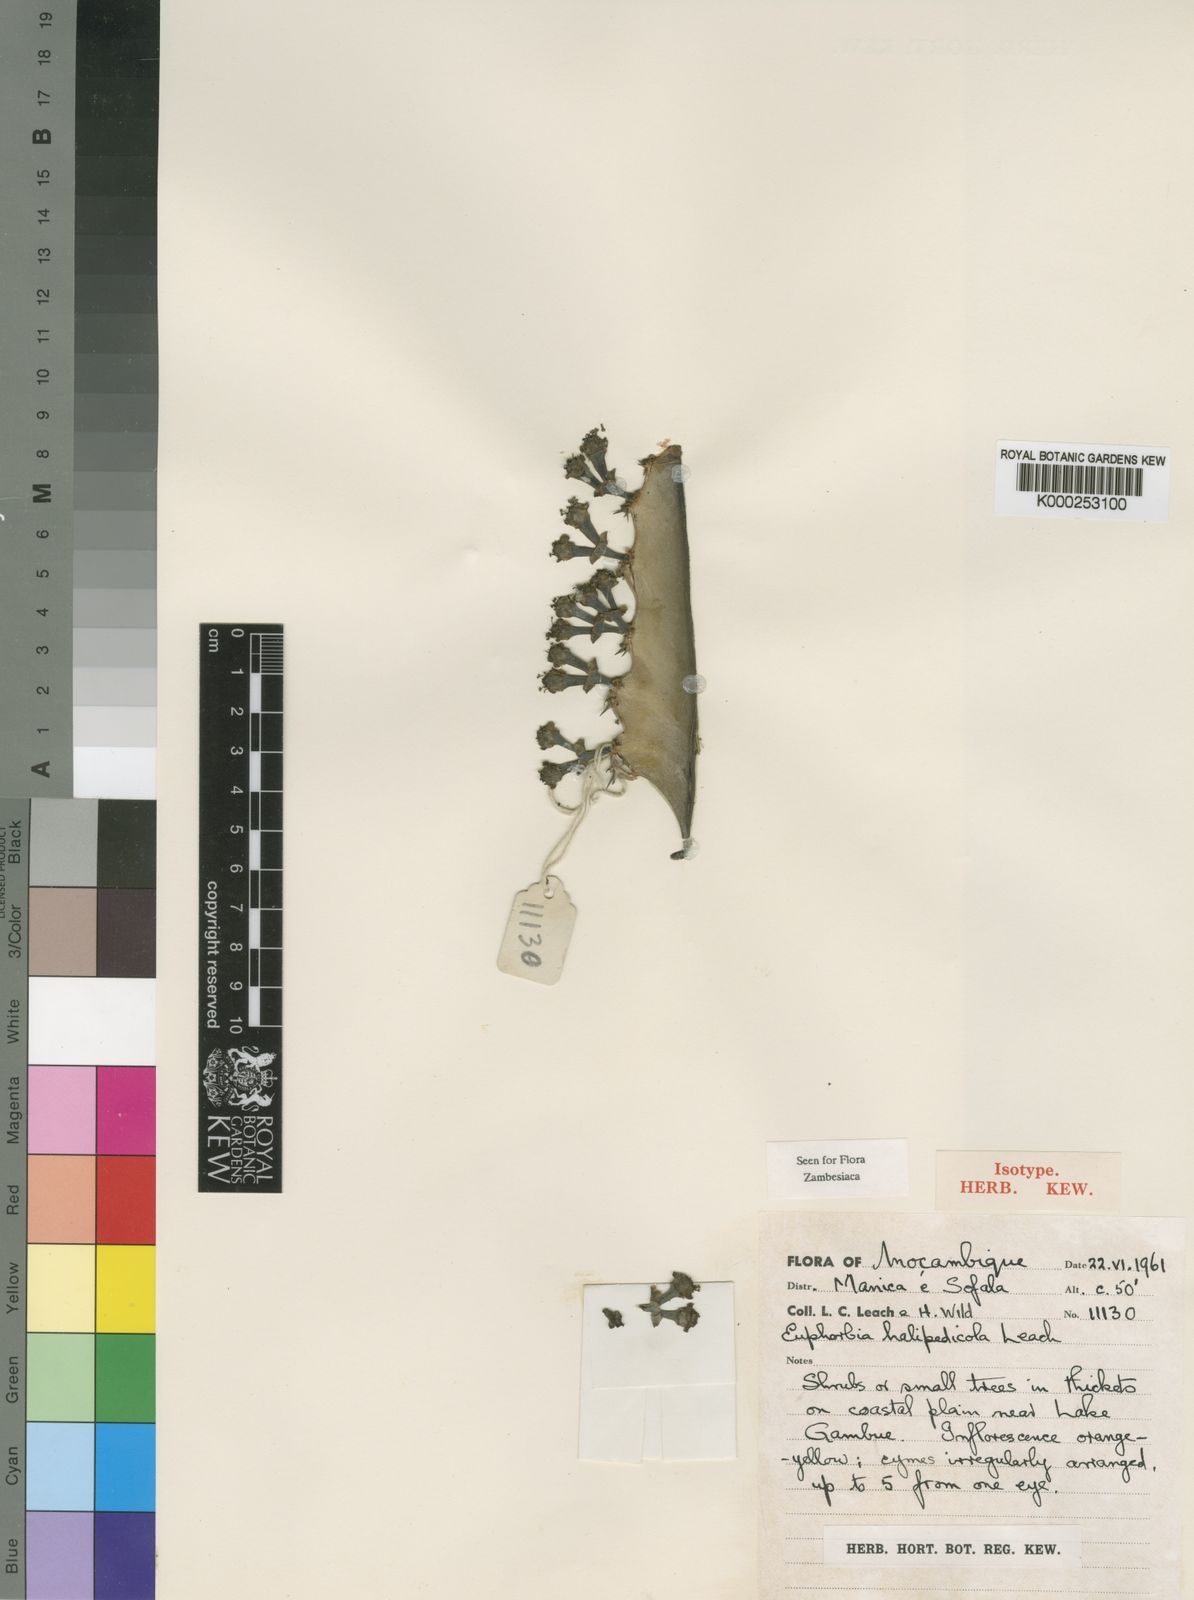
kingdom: Plantae
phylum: Tracheophyta
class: Magnoliopsida
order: Malpighiales
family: Euphorbiaceae
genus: Euphorbia
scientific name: Euphorbia halipedicola
